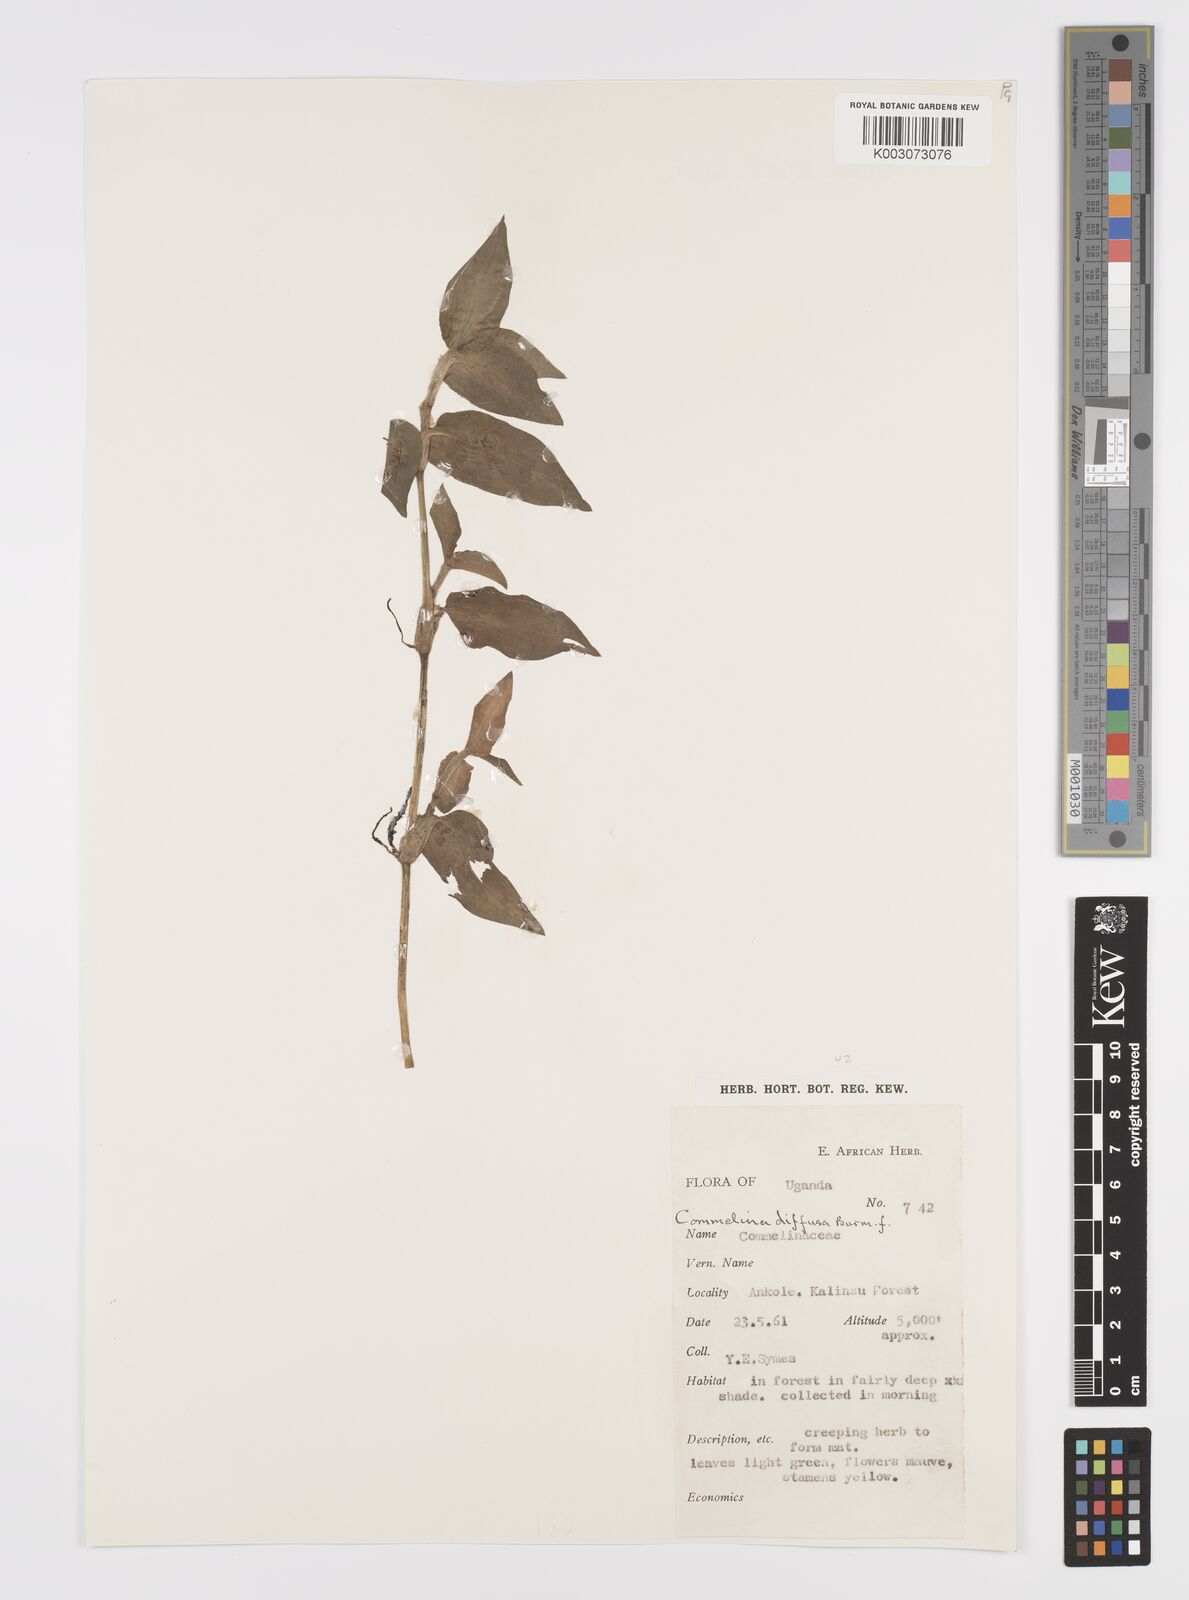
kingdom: Plantae
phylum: Tracheophyta
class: Liliopsida
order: Commelinales
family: Commelinaceae
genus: Commelina
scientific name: Commelina diffusa
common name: Climbing dayflower
